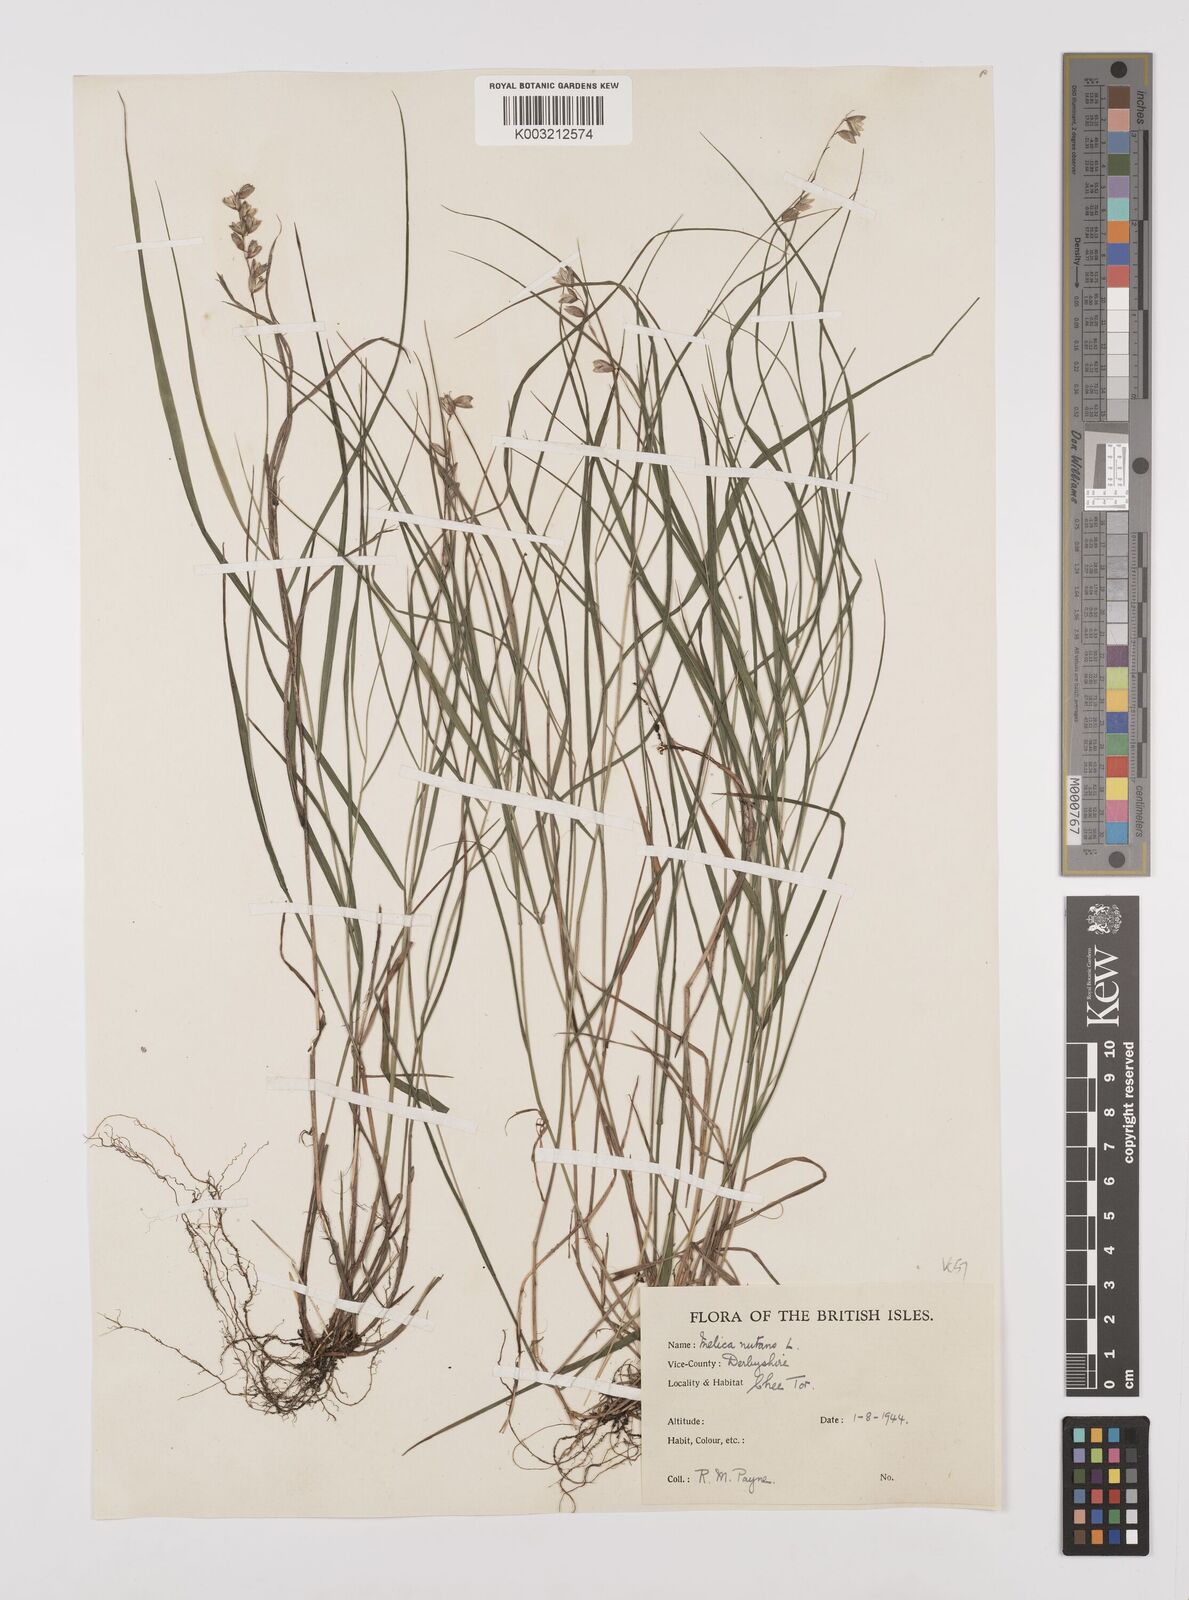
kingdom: Plantae
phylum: Tracheophyta
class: Liliopsida
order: Poales
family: Poaceae
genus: Melica
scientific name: Melica
